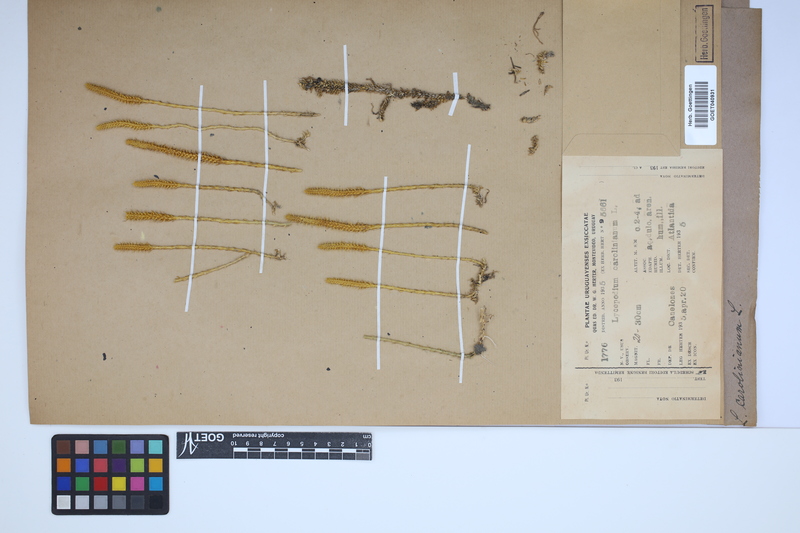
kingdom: Plantae
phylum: Tracheophyta
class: Lycopodiopsida
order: Lycopodiales
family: Lycopodiaceae
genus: Brownseya
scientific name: Brownseya serpentina
